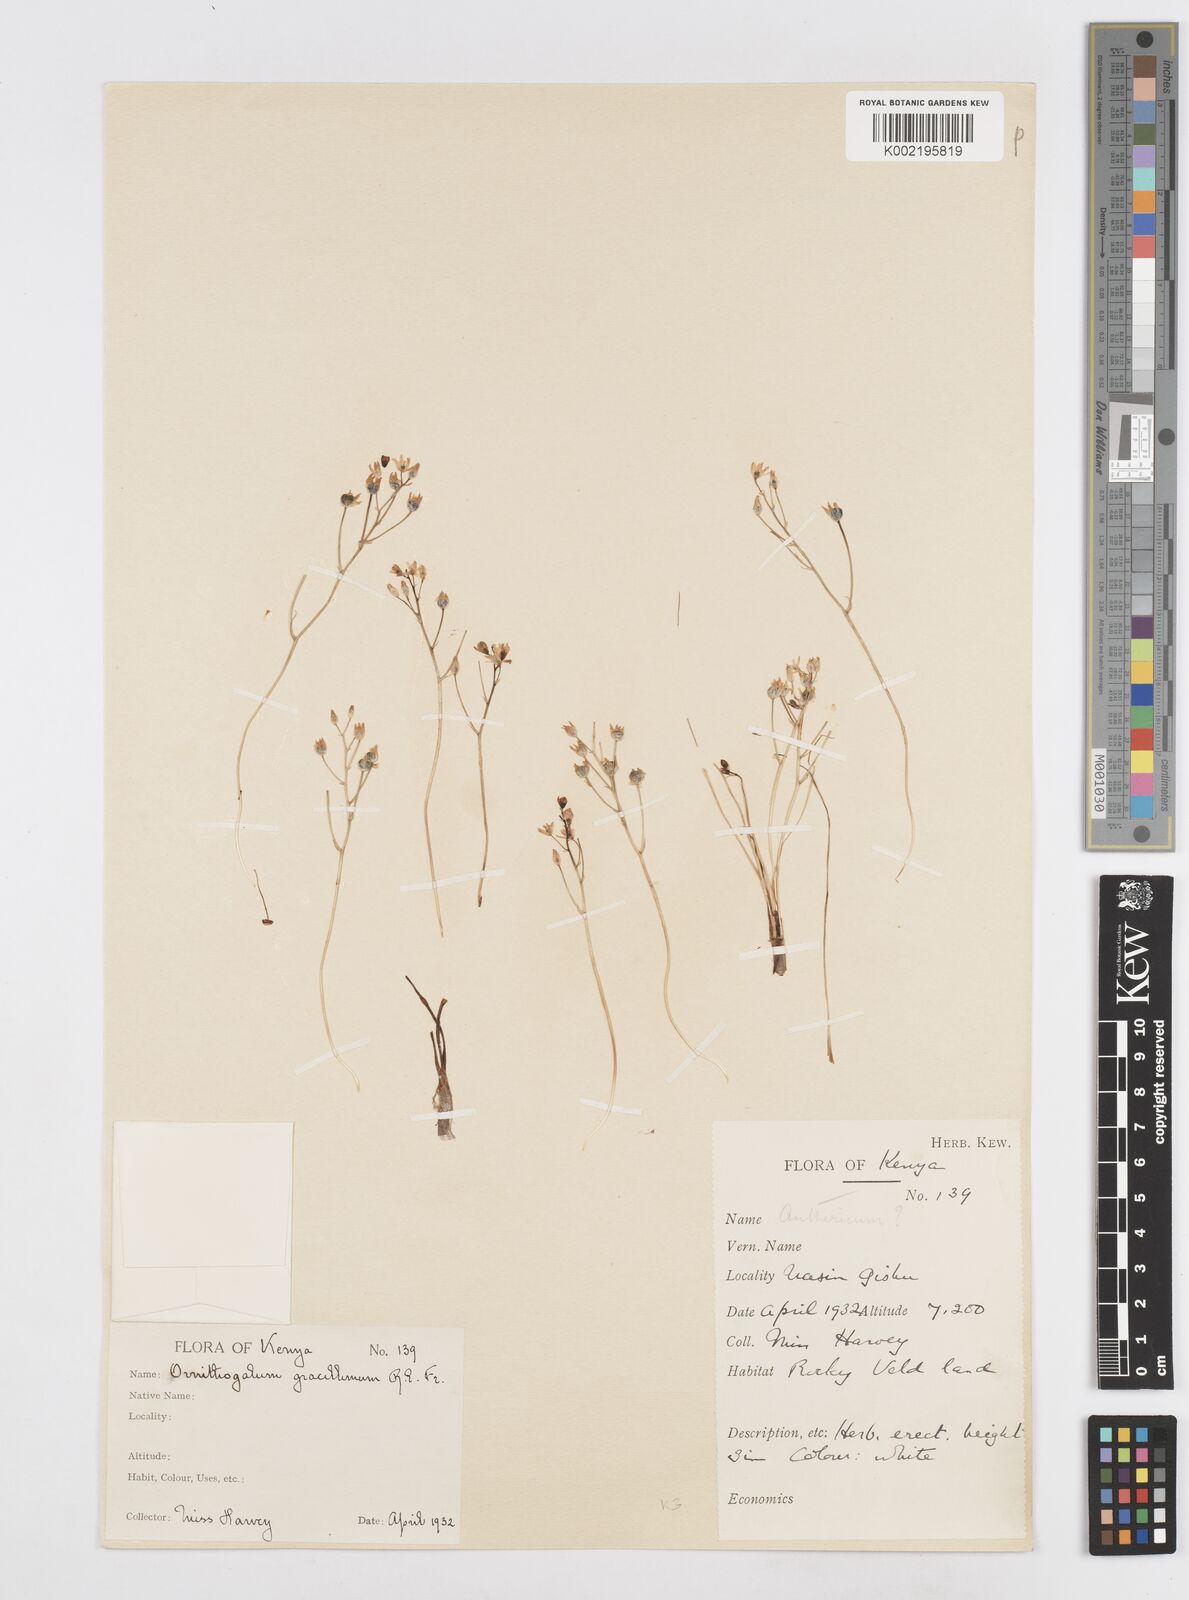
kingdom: Plantae
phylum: Tracheophyta
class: Liliopsida
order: Asparagales
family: Asparagaceae
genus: Ornithogalum
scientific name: Ornithogalum gracillimum
